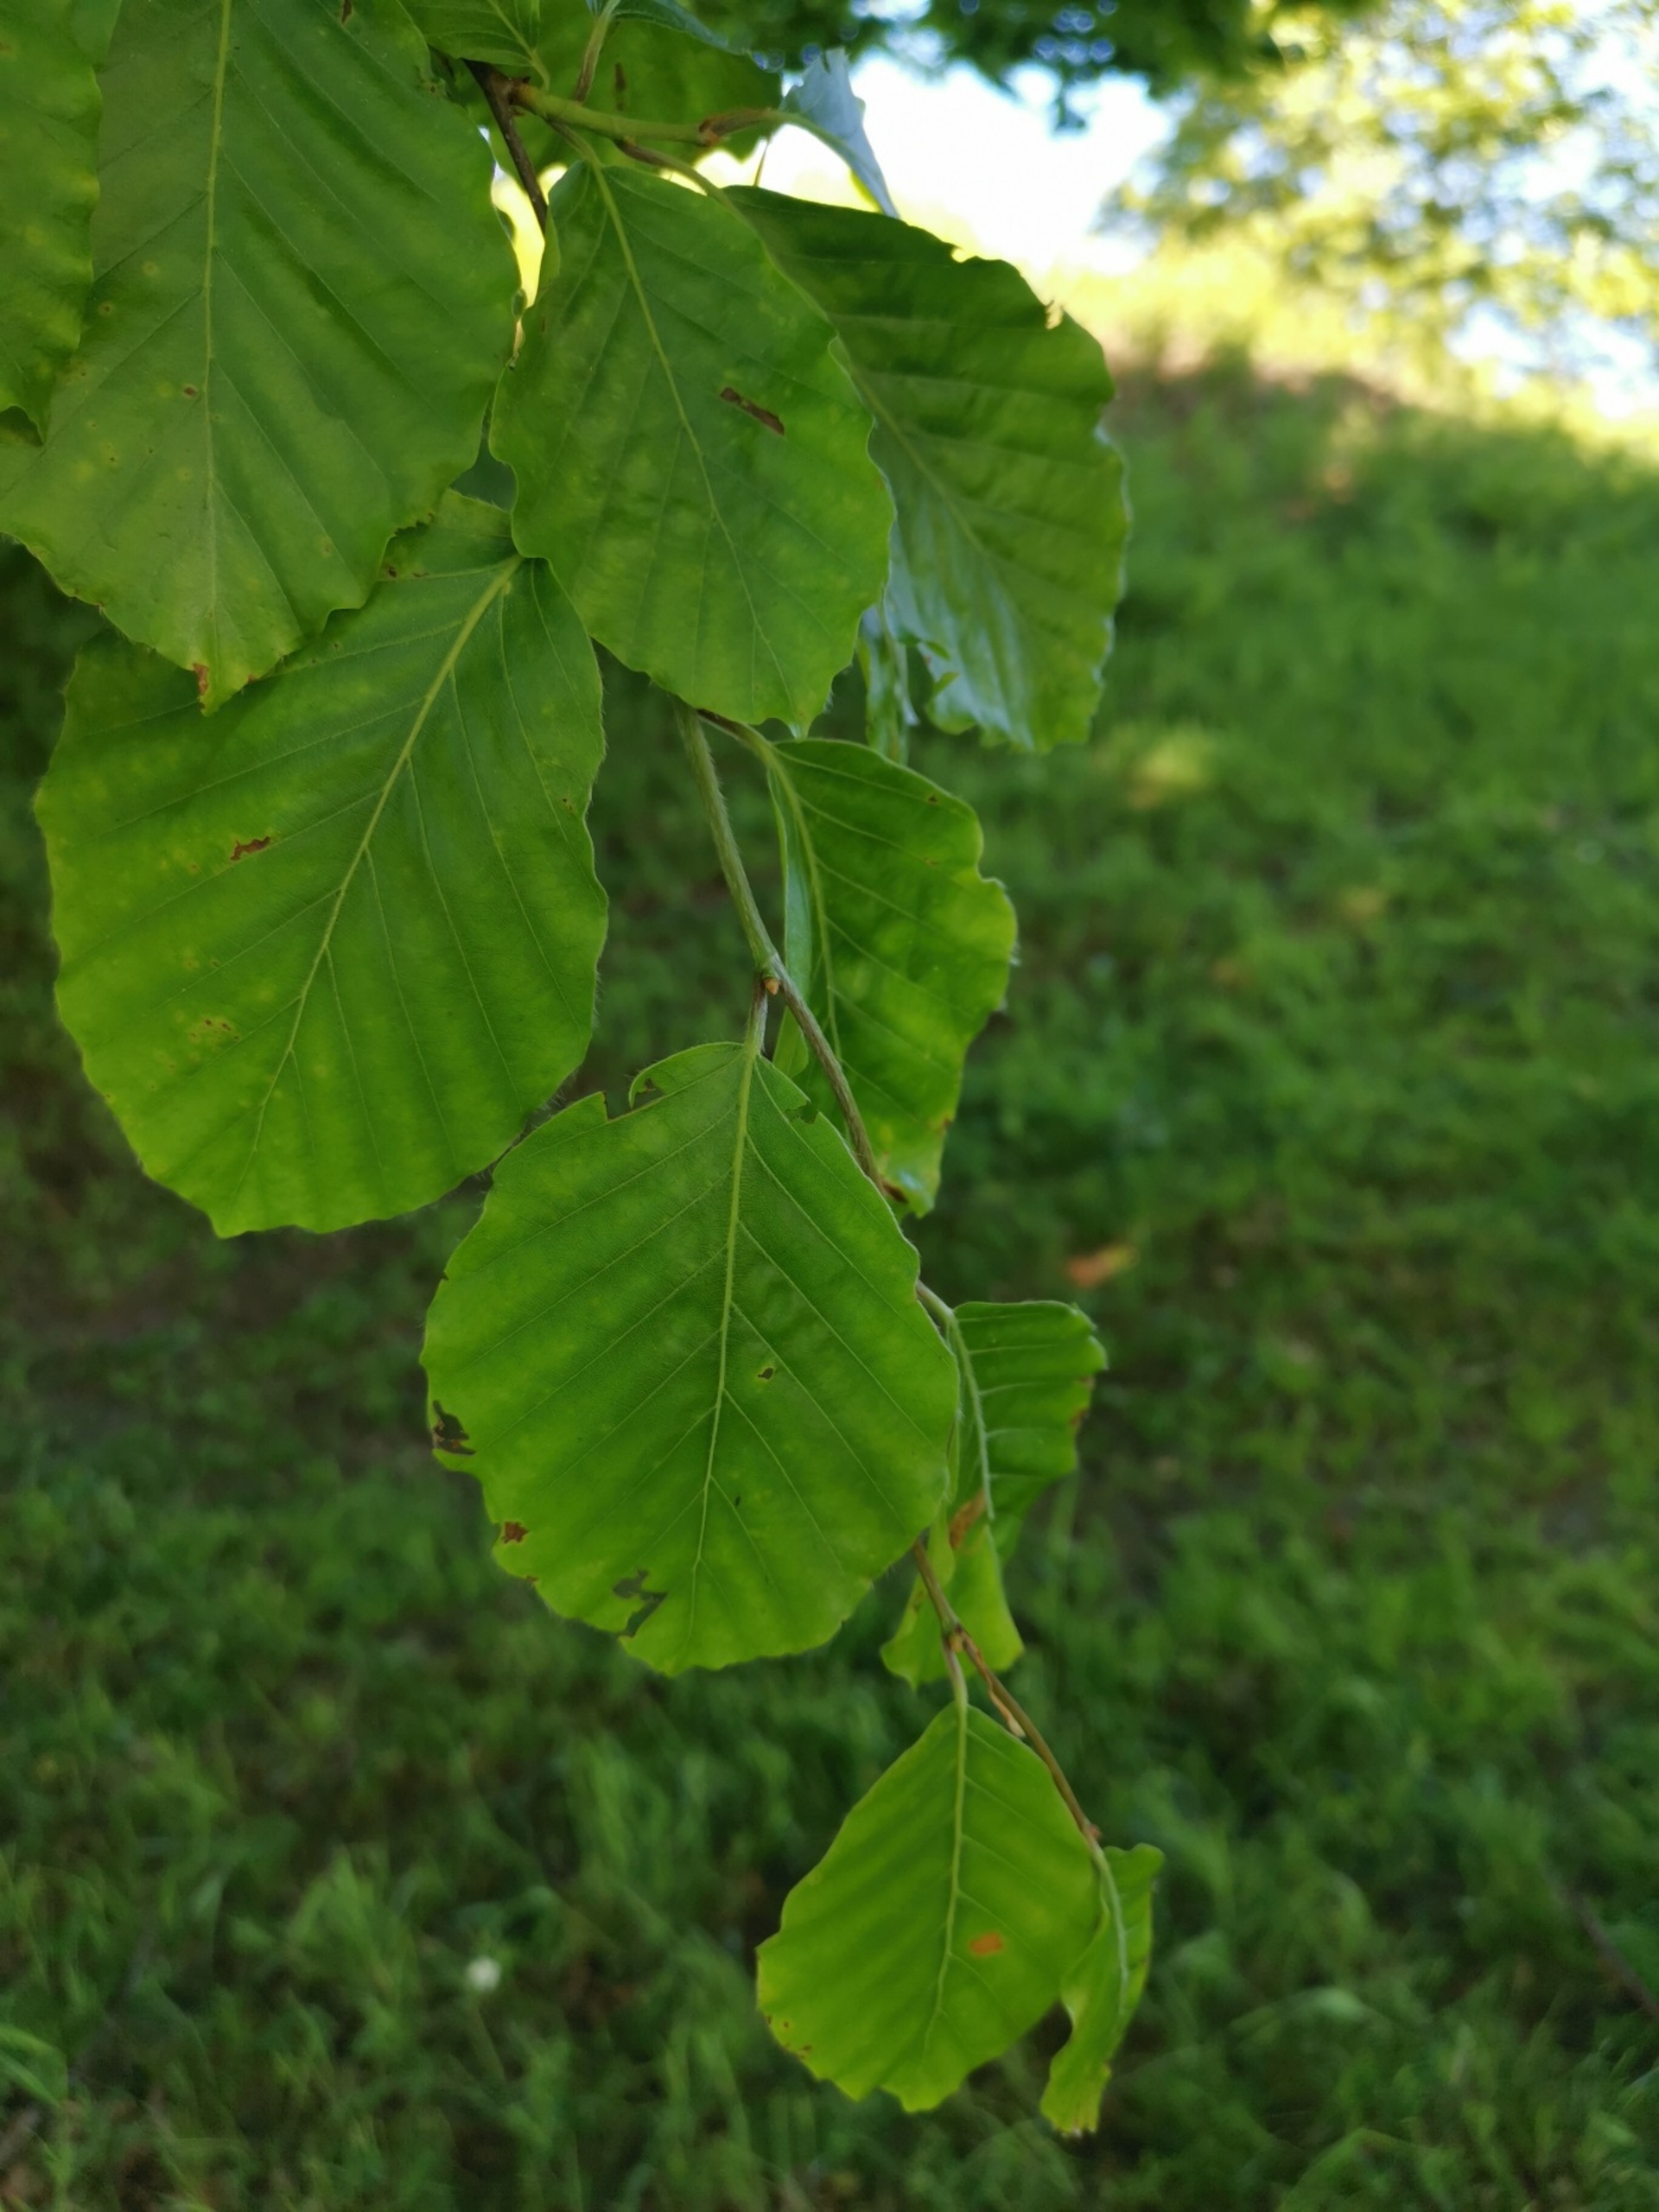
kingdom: Plantae
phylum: Tracheophyta
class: Magnoliopsida
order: Fagales
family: Fagaceae
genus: Fagus
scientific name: Fagus sylvatica
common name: Bøg
